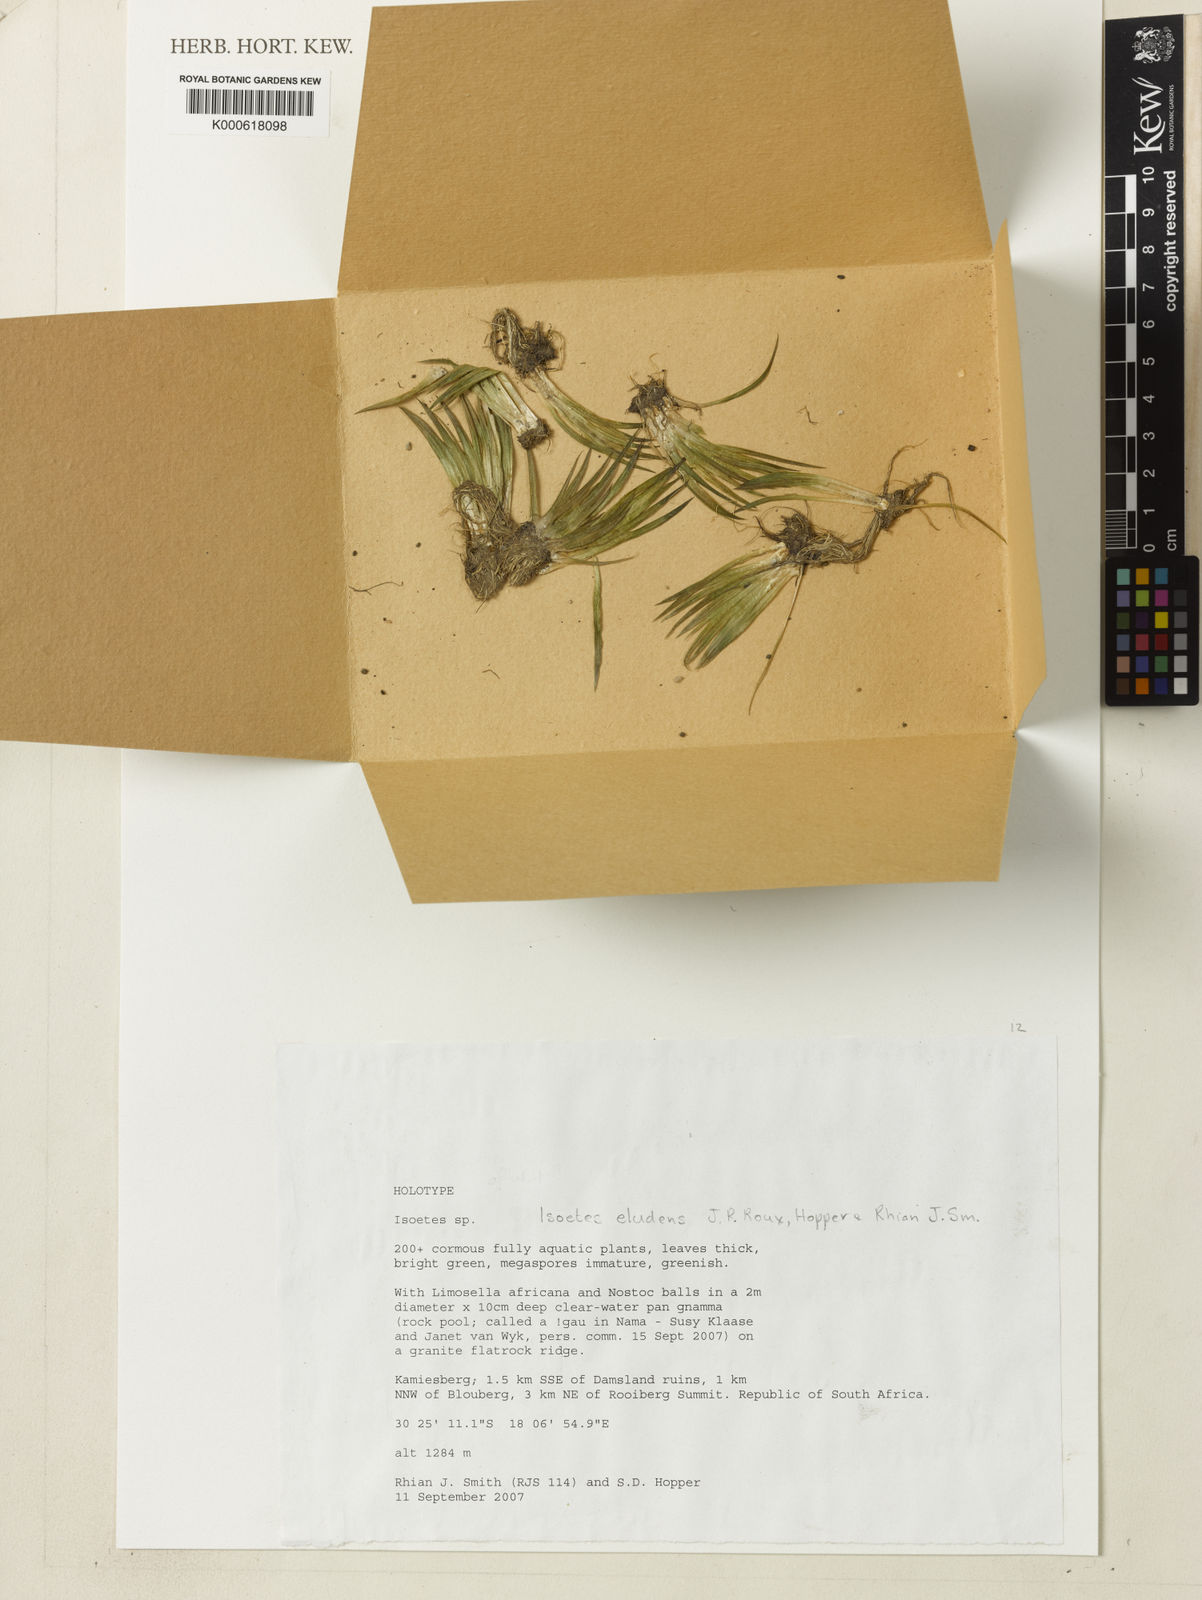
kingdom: Plantae
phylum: Tracheophyta
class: Lycopodiopsida
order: Isoetales
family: Isoetaceae
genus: Isoetes
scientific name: Isoetes eludens
